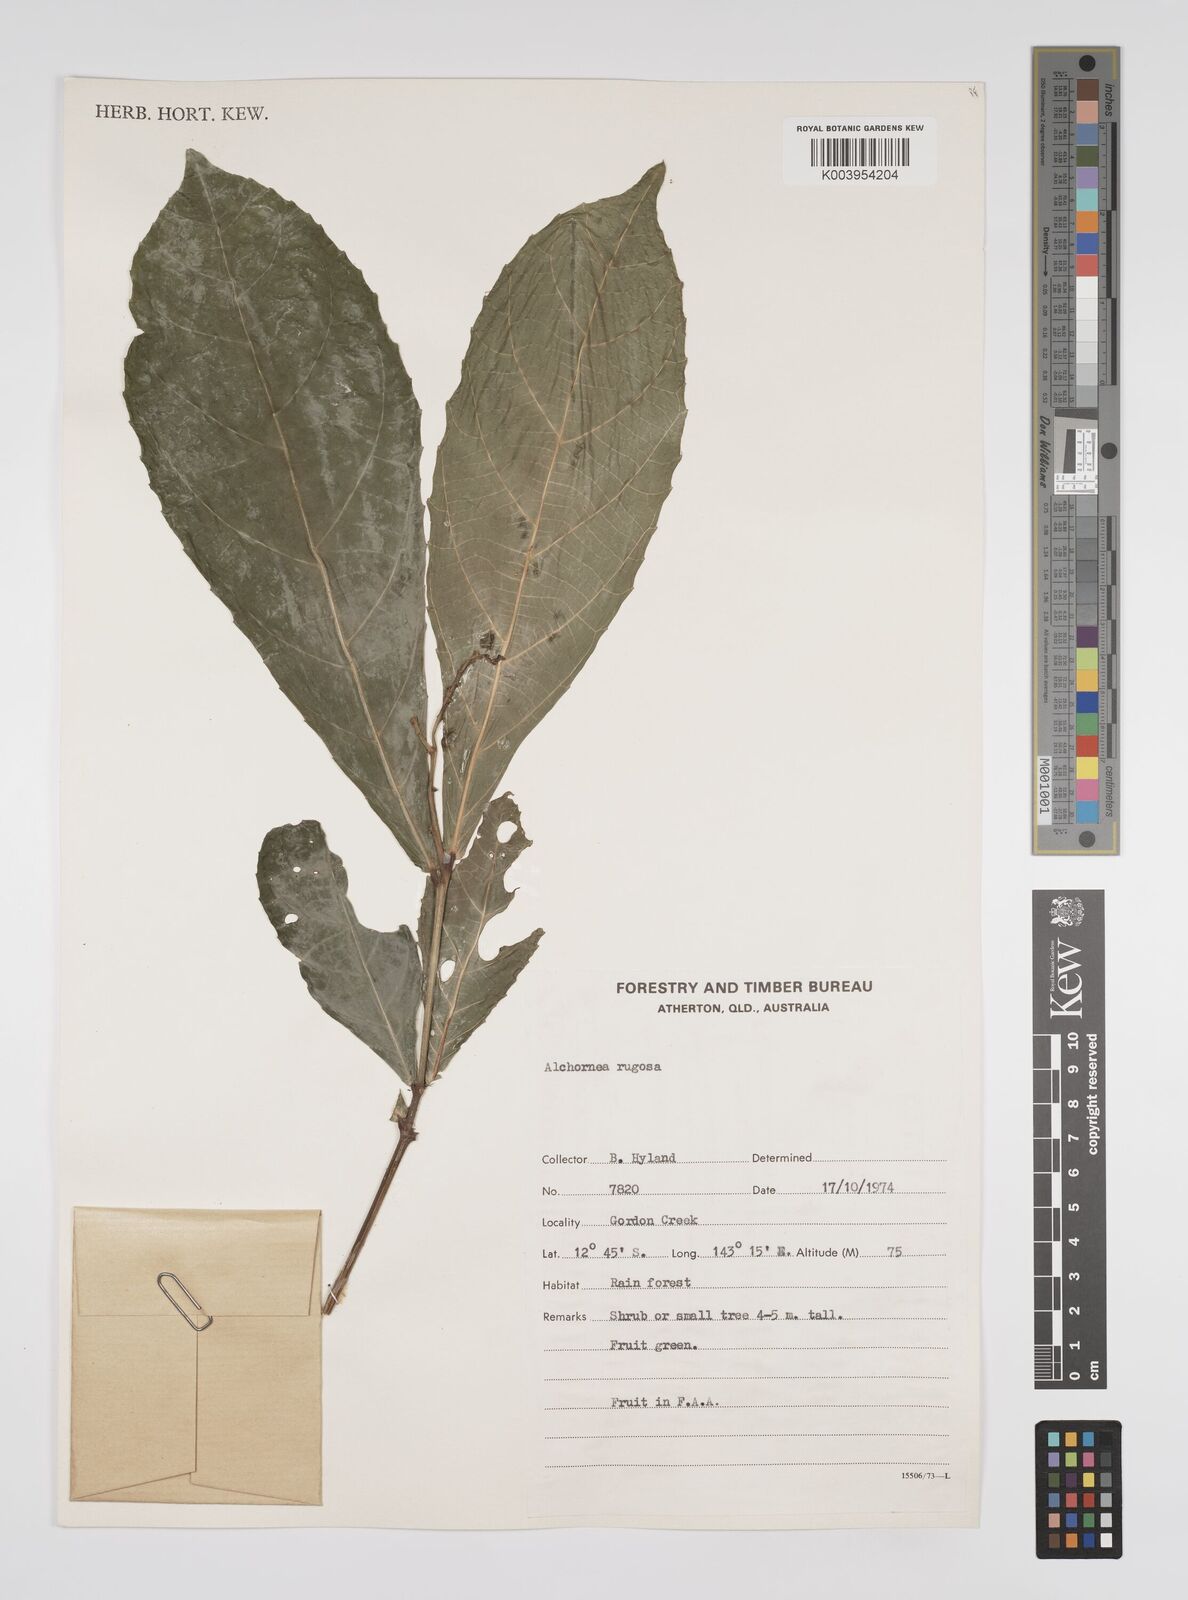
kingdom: Plantae
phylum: Tracheophyta
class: Magnoliopsida
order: Malpighiales
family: Euphorbiaceae
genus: Alchornea
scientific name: Alchornea rugosa
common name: Alchorntree
